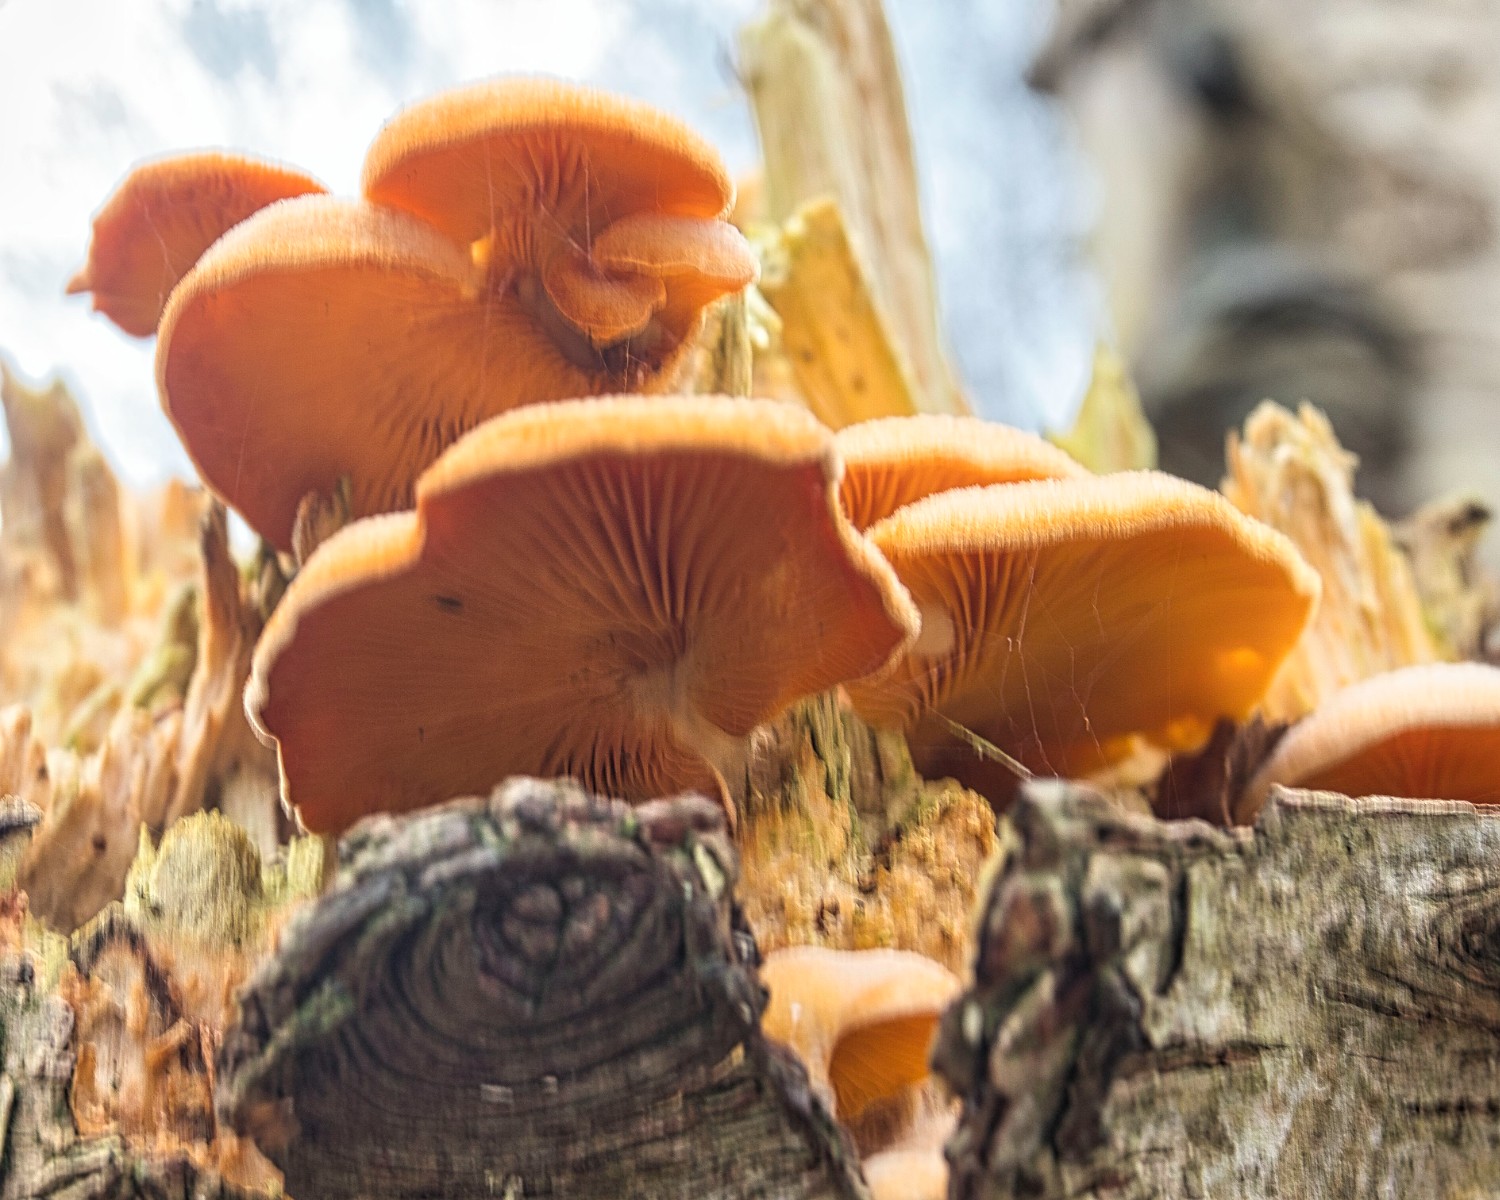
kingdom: Fungi
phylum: Basidiomycota
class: Agaricomycetes
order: Agaricales
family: Phyllotopsidaceae
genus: Phyllotopsis
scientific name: Phyllotopsis nidulans
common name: okkerblad
